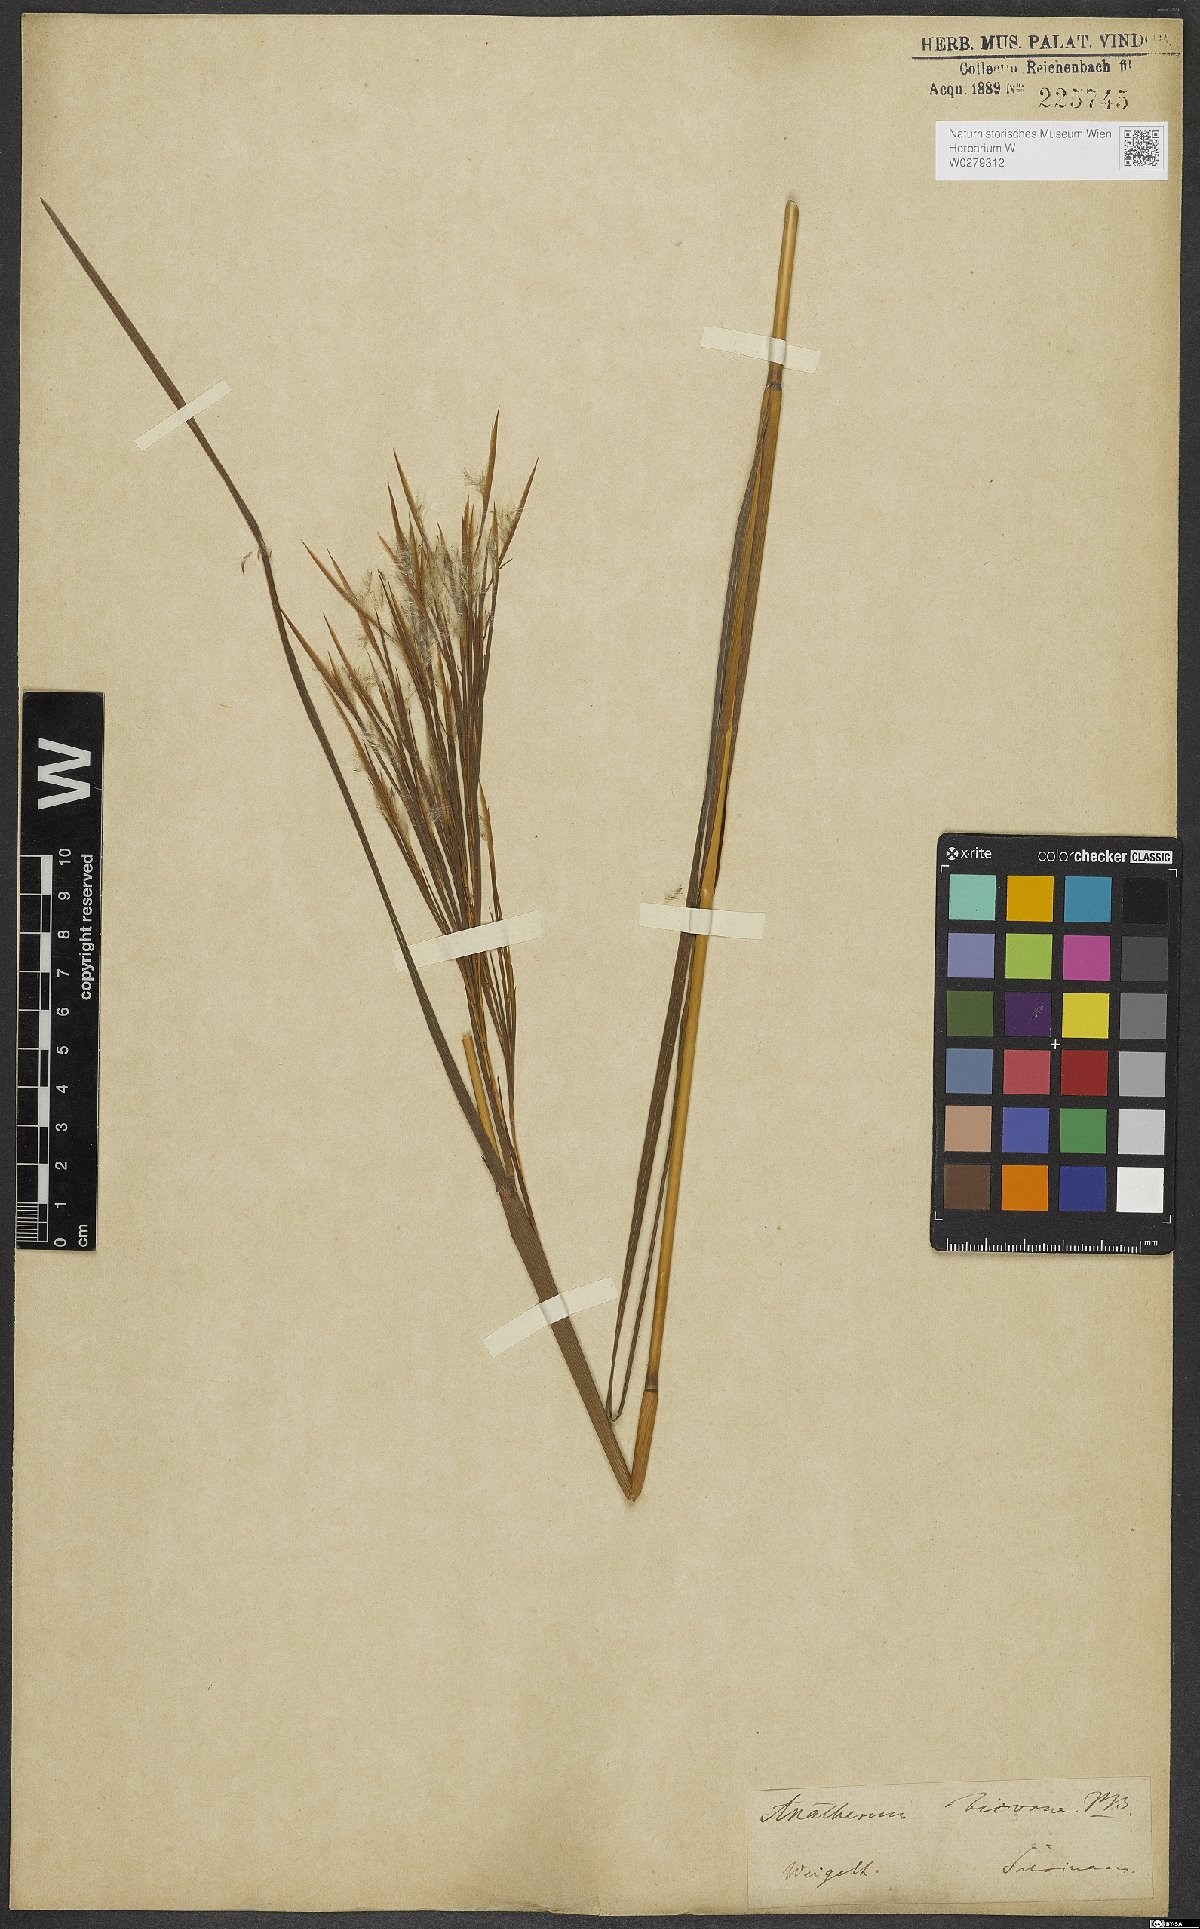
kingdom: Plantae
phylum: Tracheophyta
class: Liliopsida
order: Poales
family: Poaceae
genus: Andropogon
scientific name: Andropogon bicornis
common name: West indian foxtail grass
